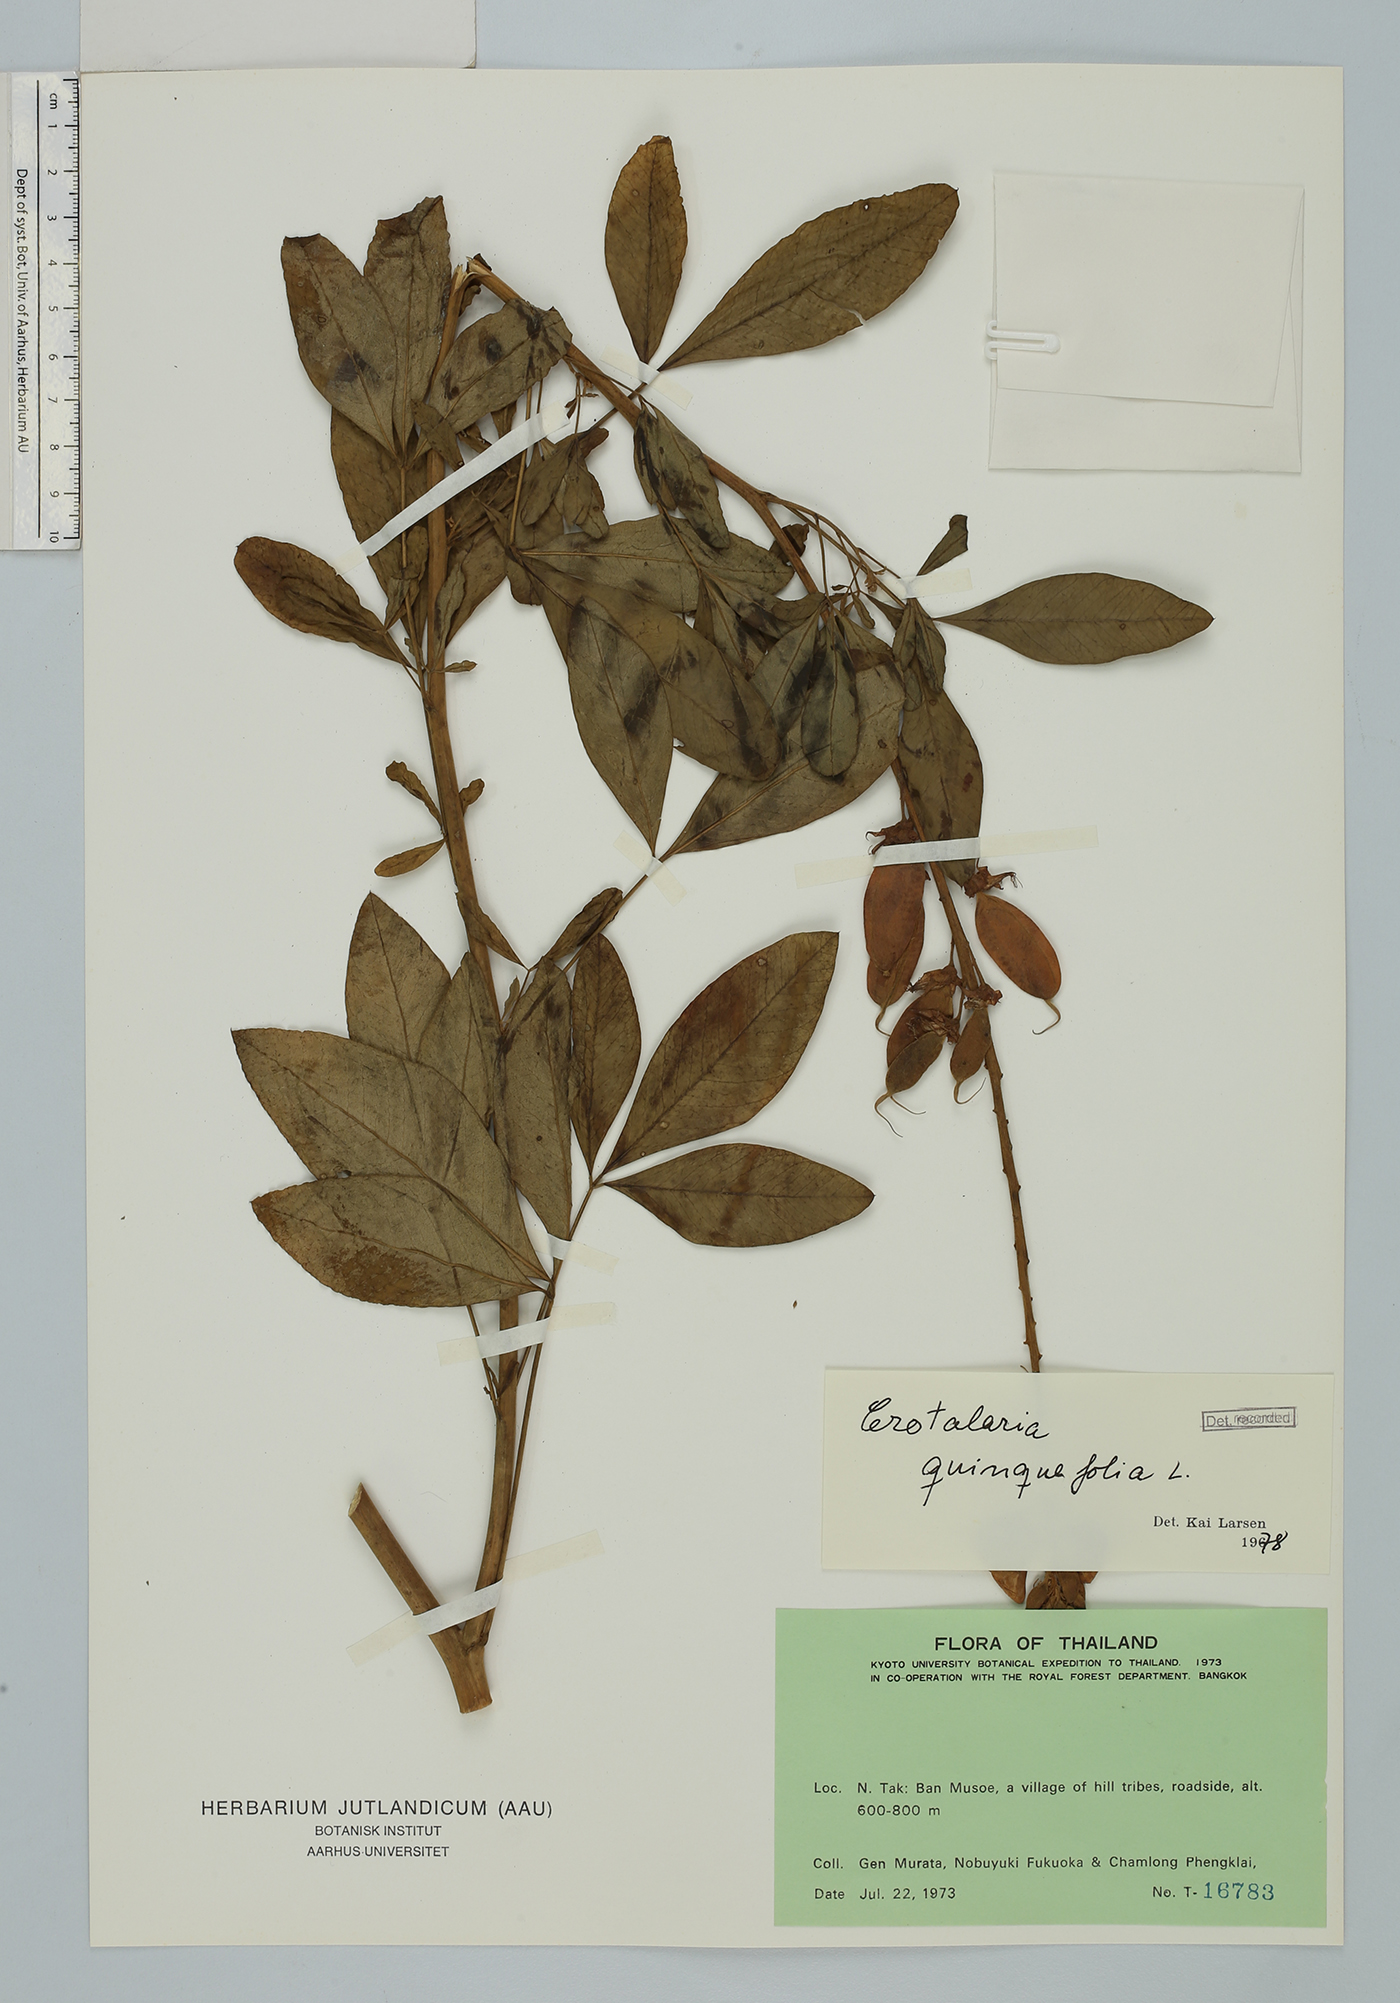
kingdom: Plantae
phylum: Tracheophyta
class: Magnoliopsida
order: Fabales
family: Fabaceae
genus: Crotalaria
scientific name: Crotalaria micans
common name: Caracas rattlebox
